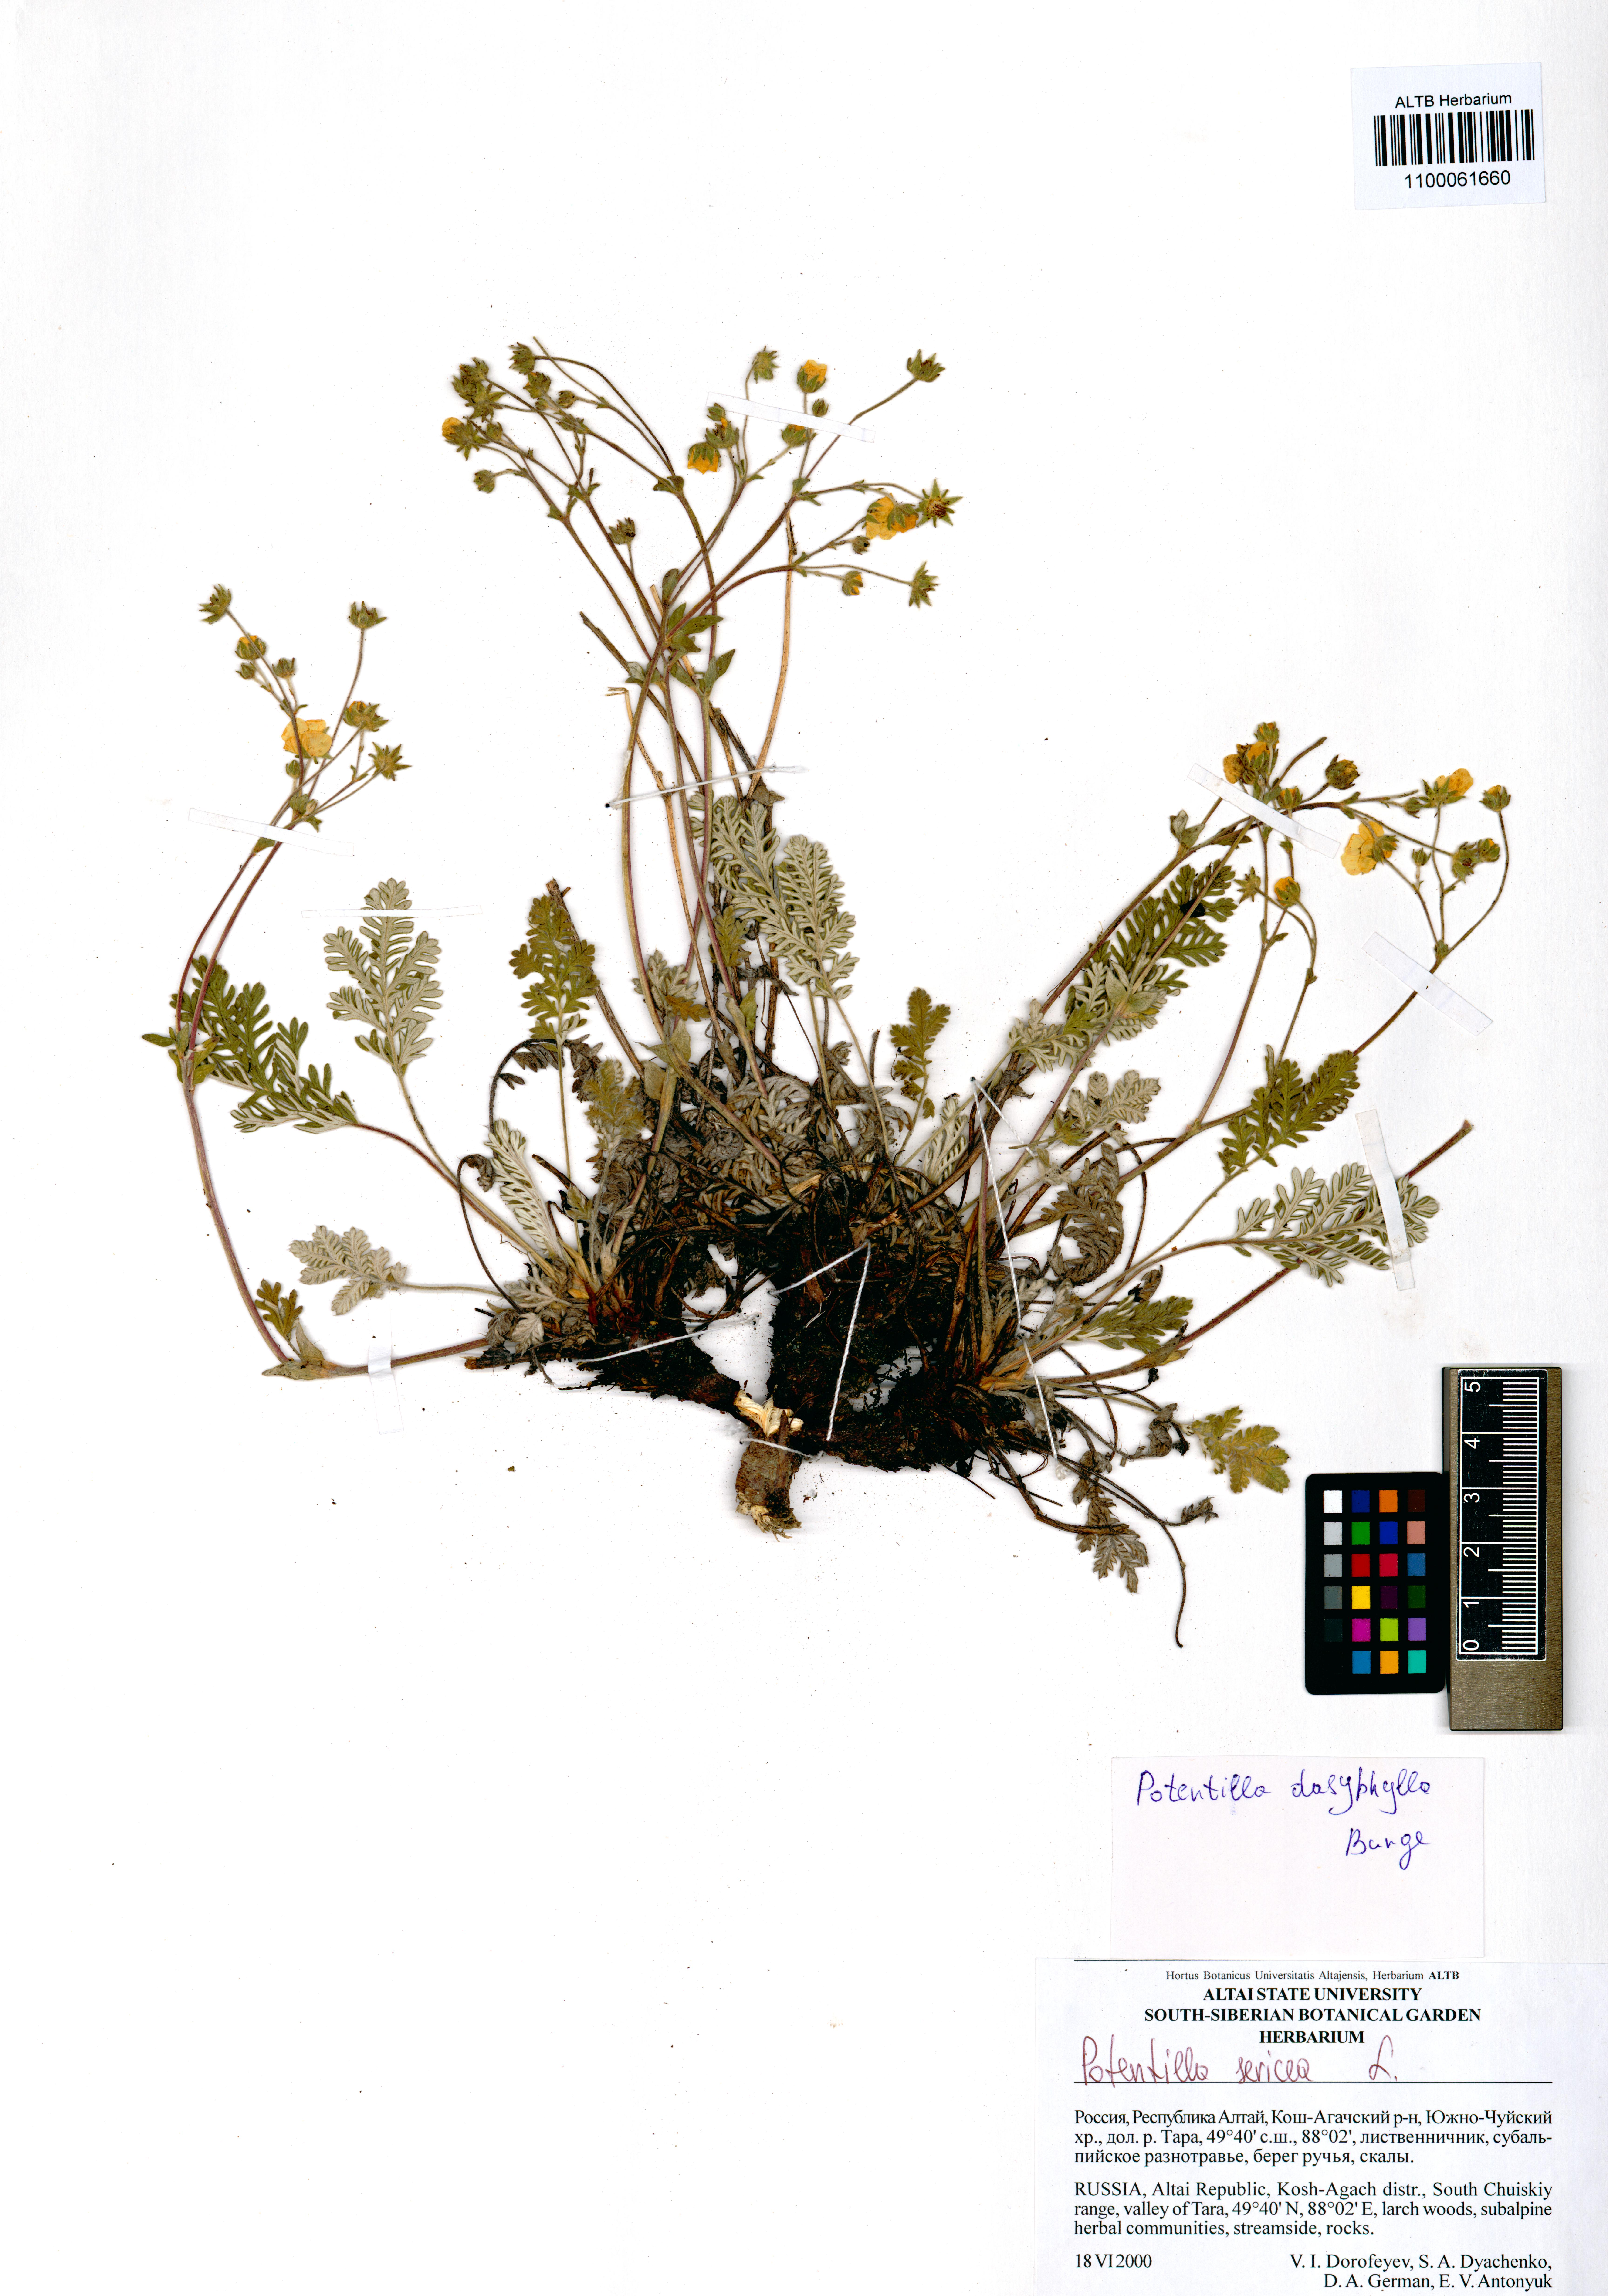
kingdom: Plantae
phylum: Tracheophyta
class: Magnoliopsida
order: Rosales
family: Rosaceae
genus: Potentilla
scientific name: Potentilla sericea
